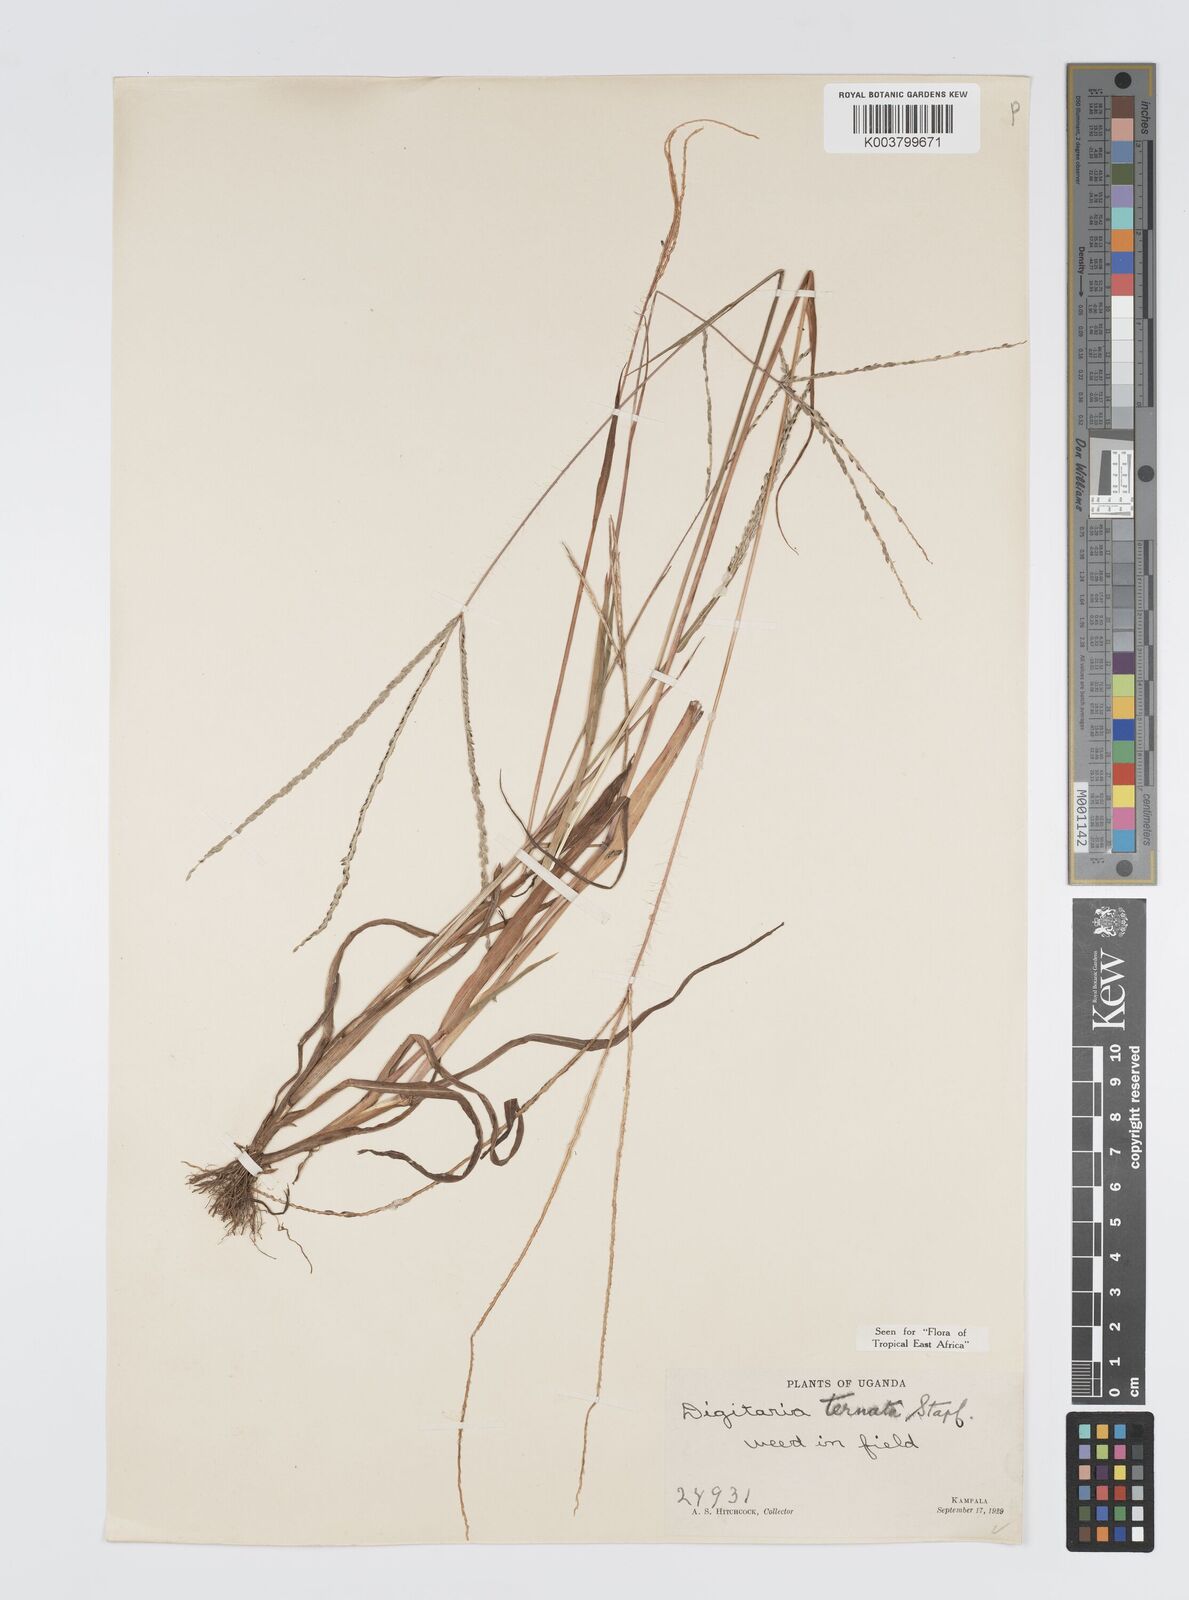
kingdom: Plantae
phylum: Tracheophyta
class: Liliopsida
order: Poales
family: Poaceae
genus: Digitaria
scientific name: Digitaria ternata
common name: Blackseed crabgrass
